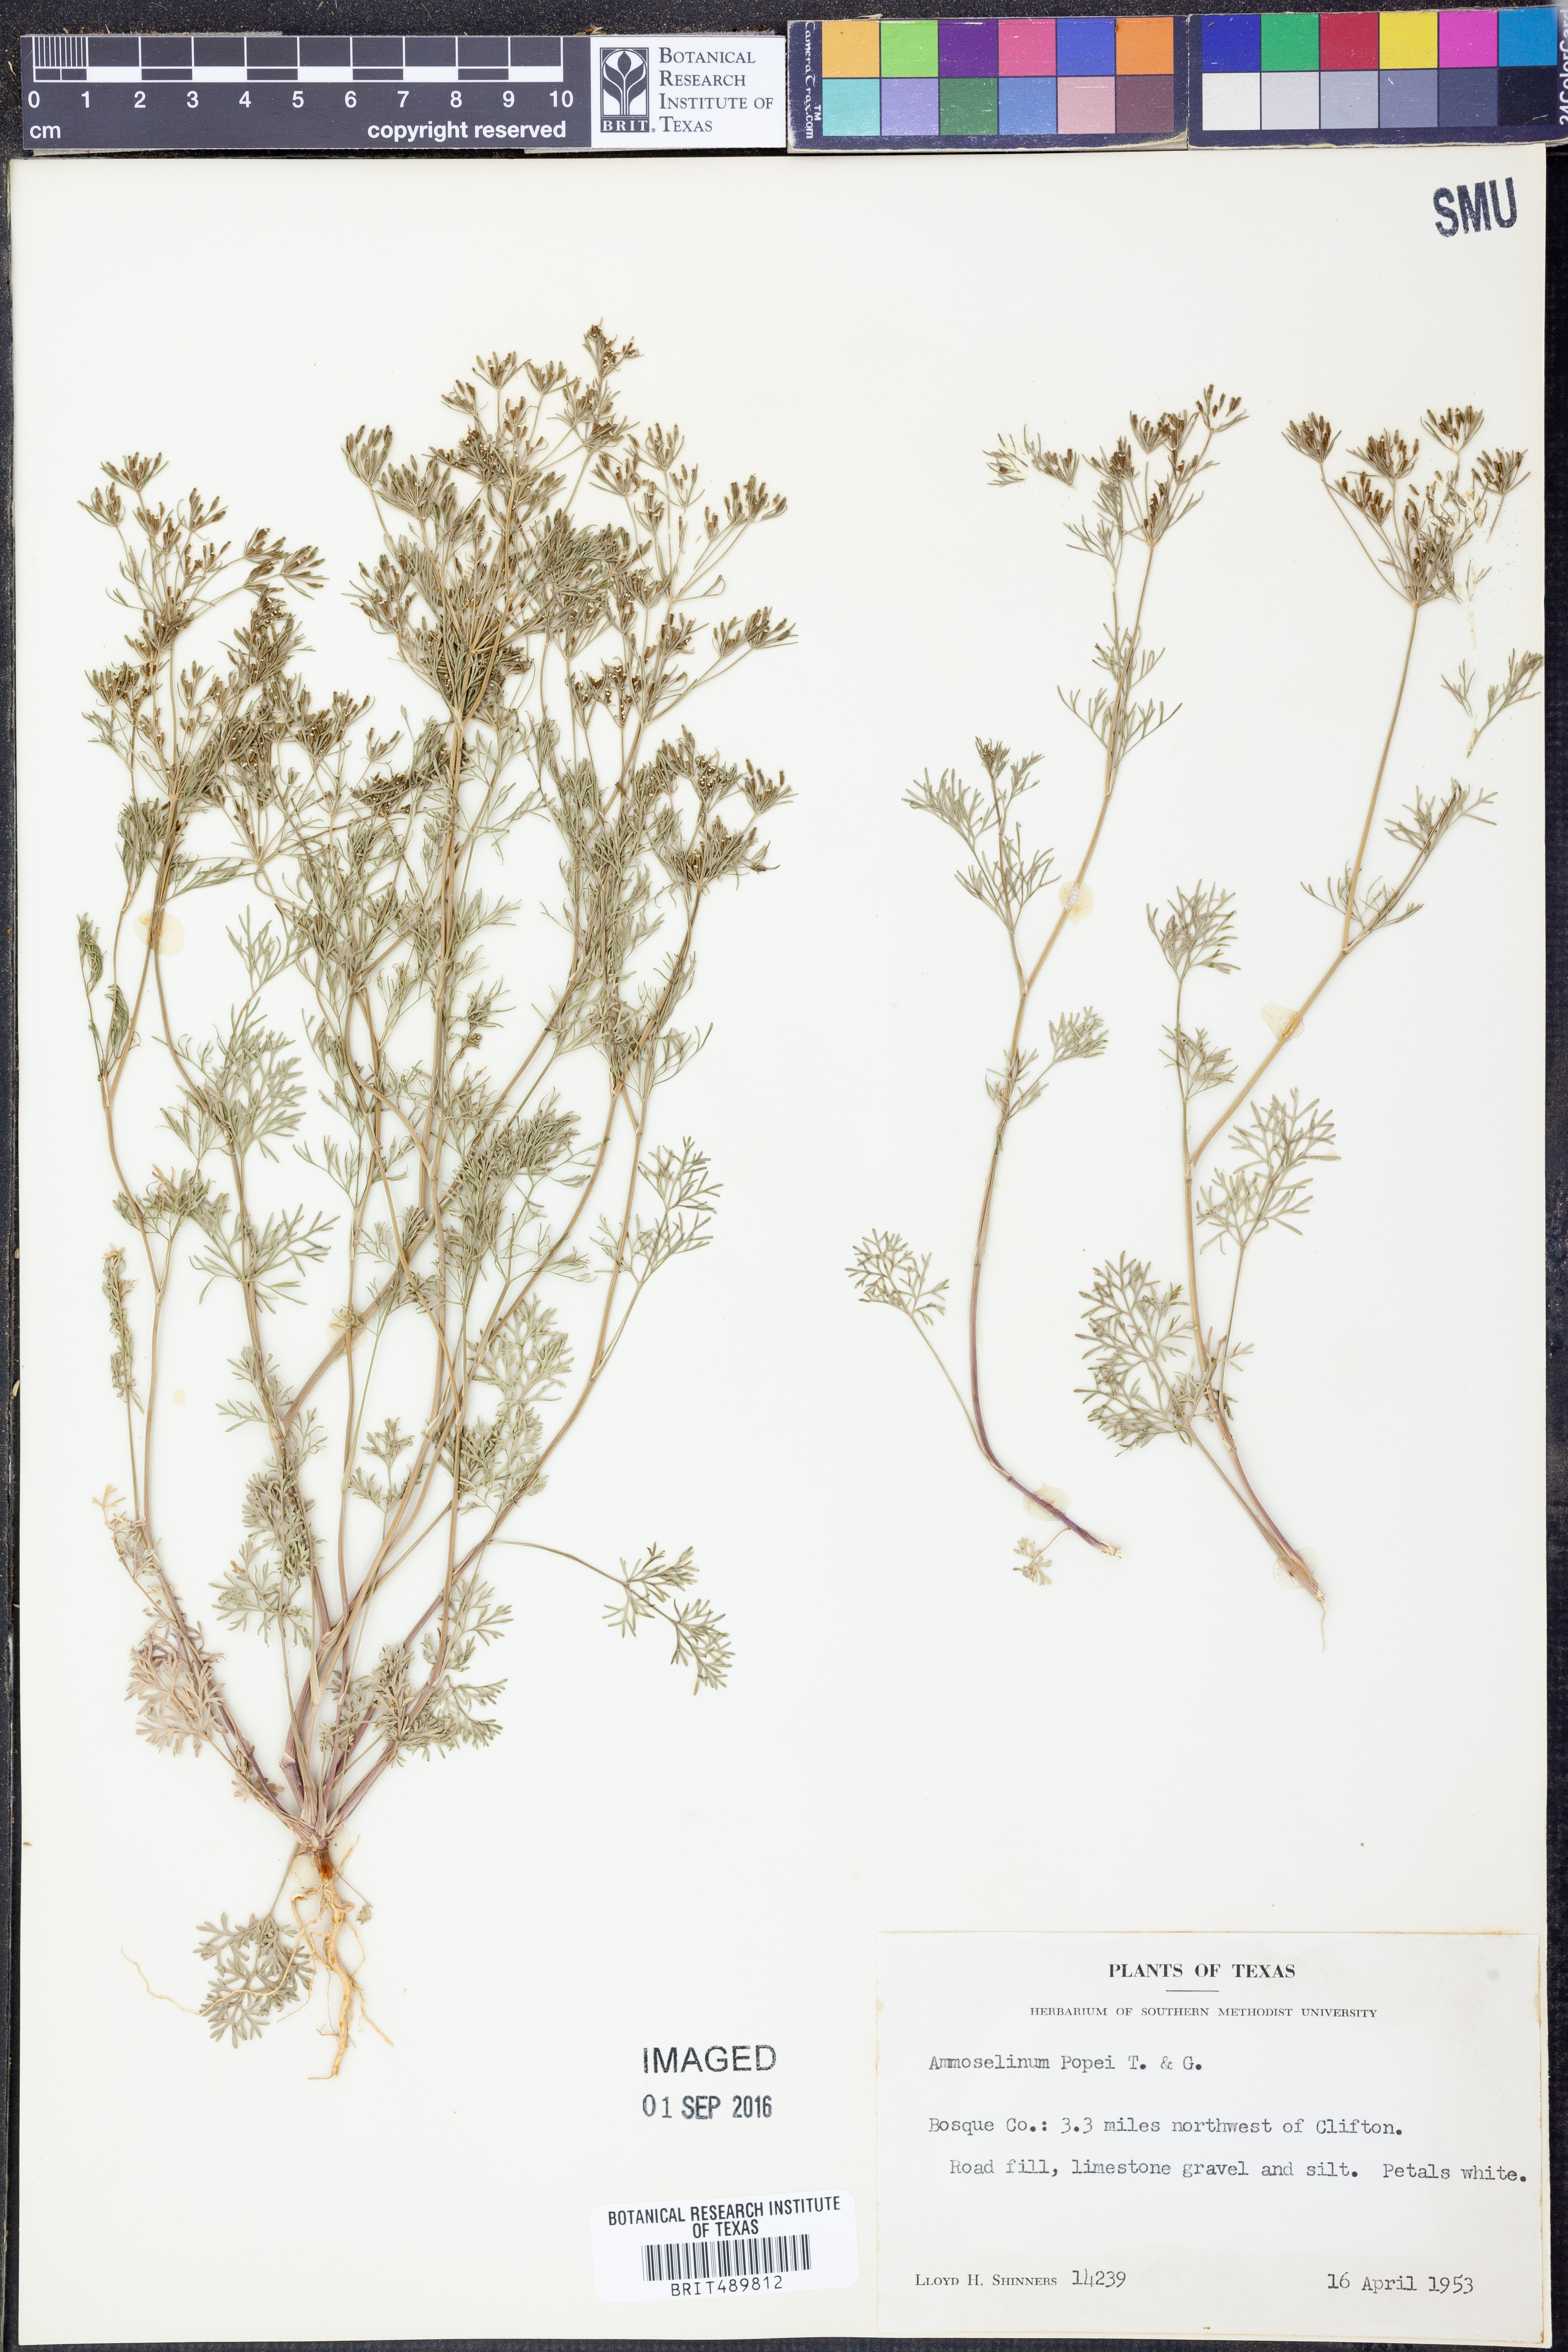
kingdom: Plantae
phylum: Tracheophyta
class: Magnoliopsida
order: Apiales
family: Apiaceae
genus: Ammoselinum
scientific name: Ammoselinum popei
